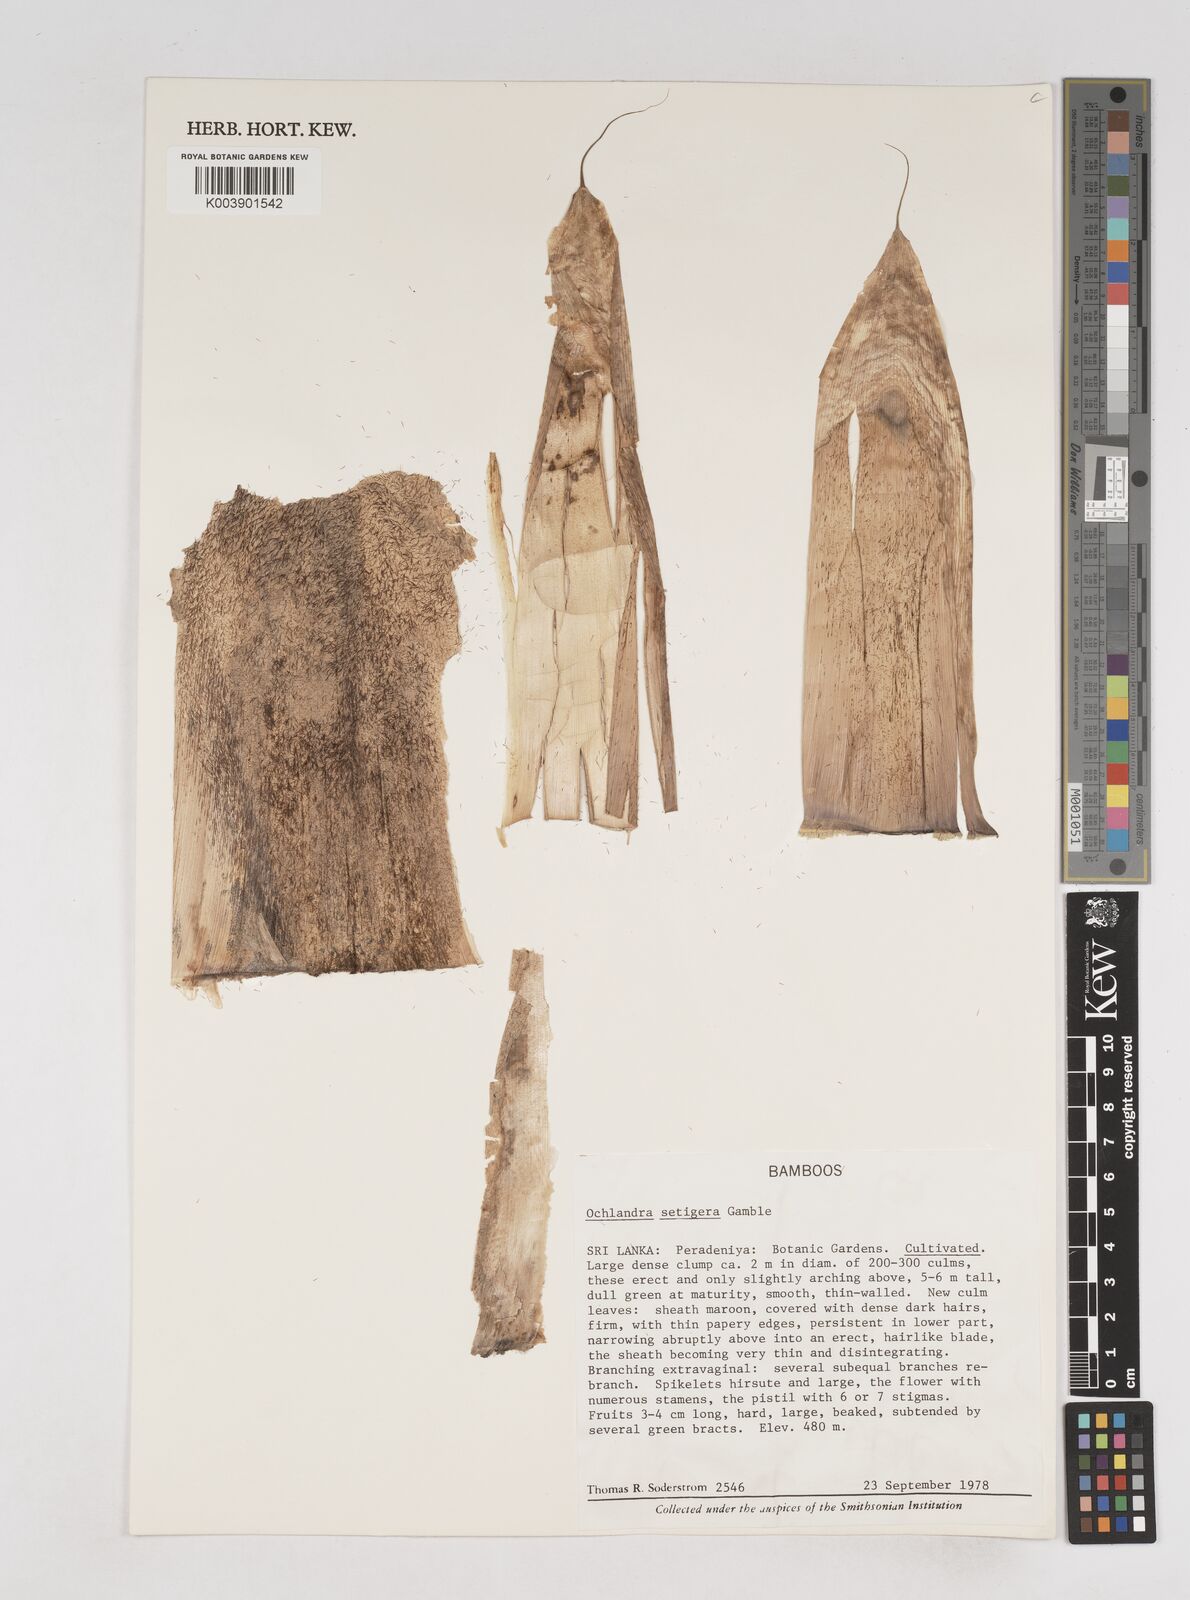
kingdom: Plantae
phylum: Tracheophyta
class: Liliopsida
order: Poales
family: Poaceae
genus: Ochlandra
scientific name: Ochlandra setigera
